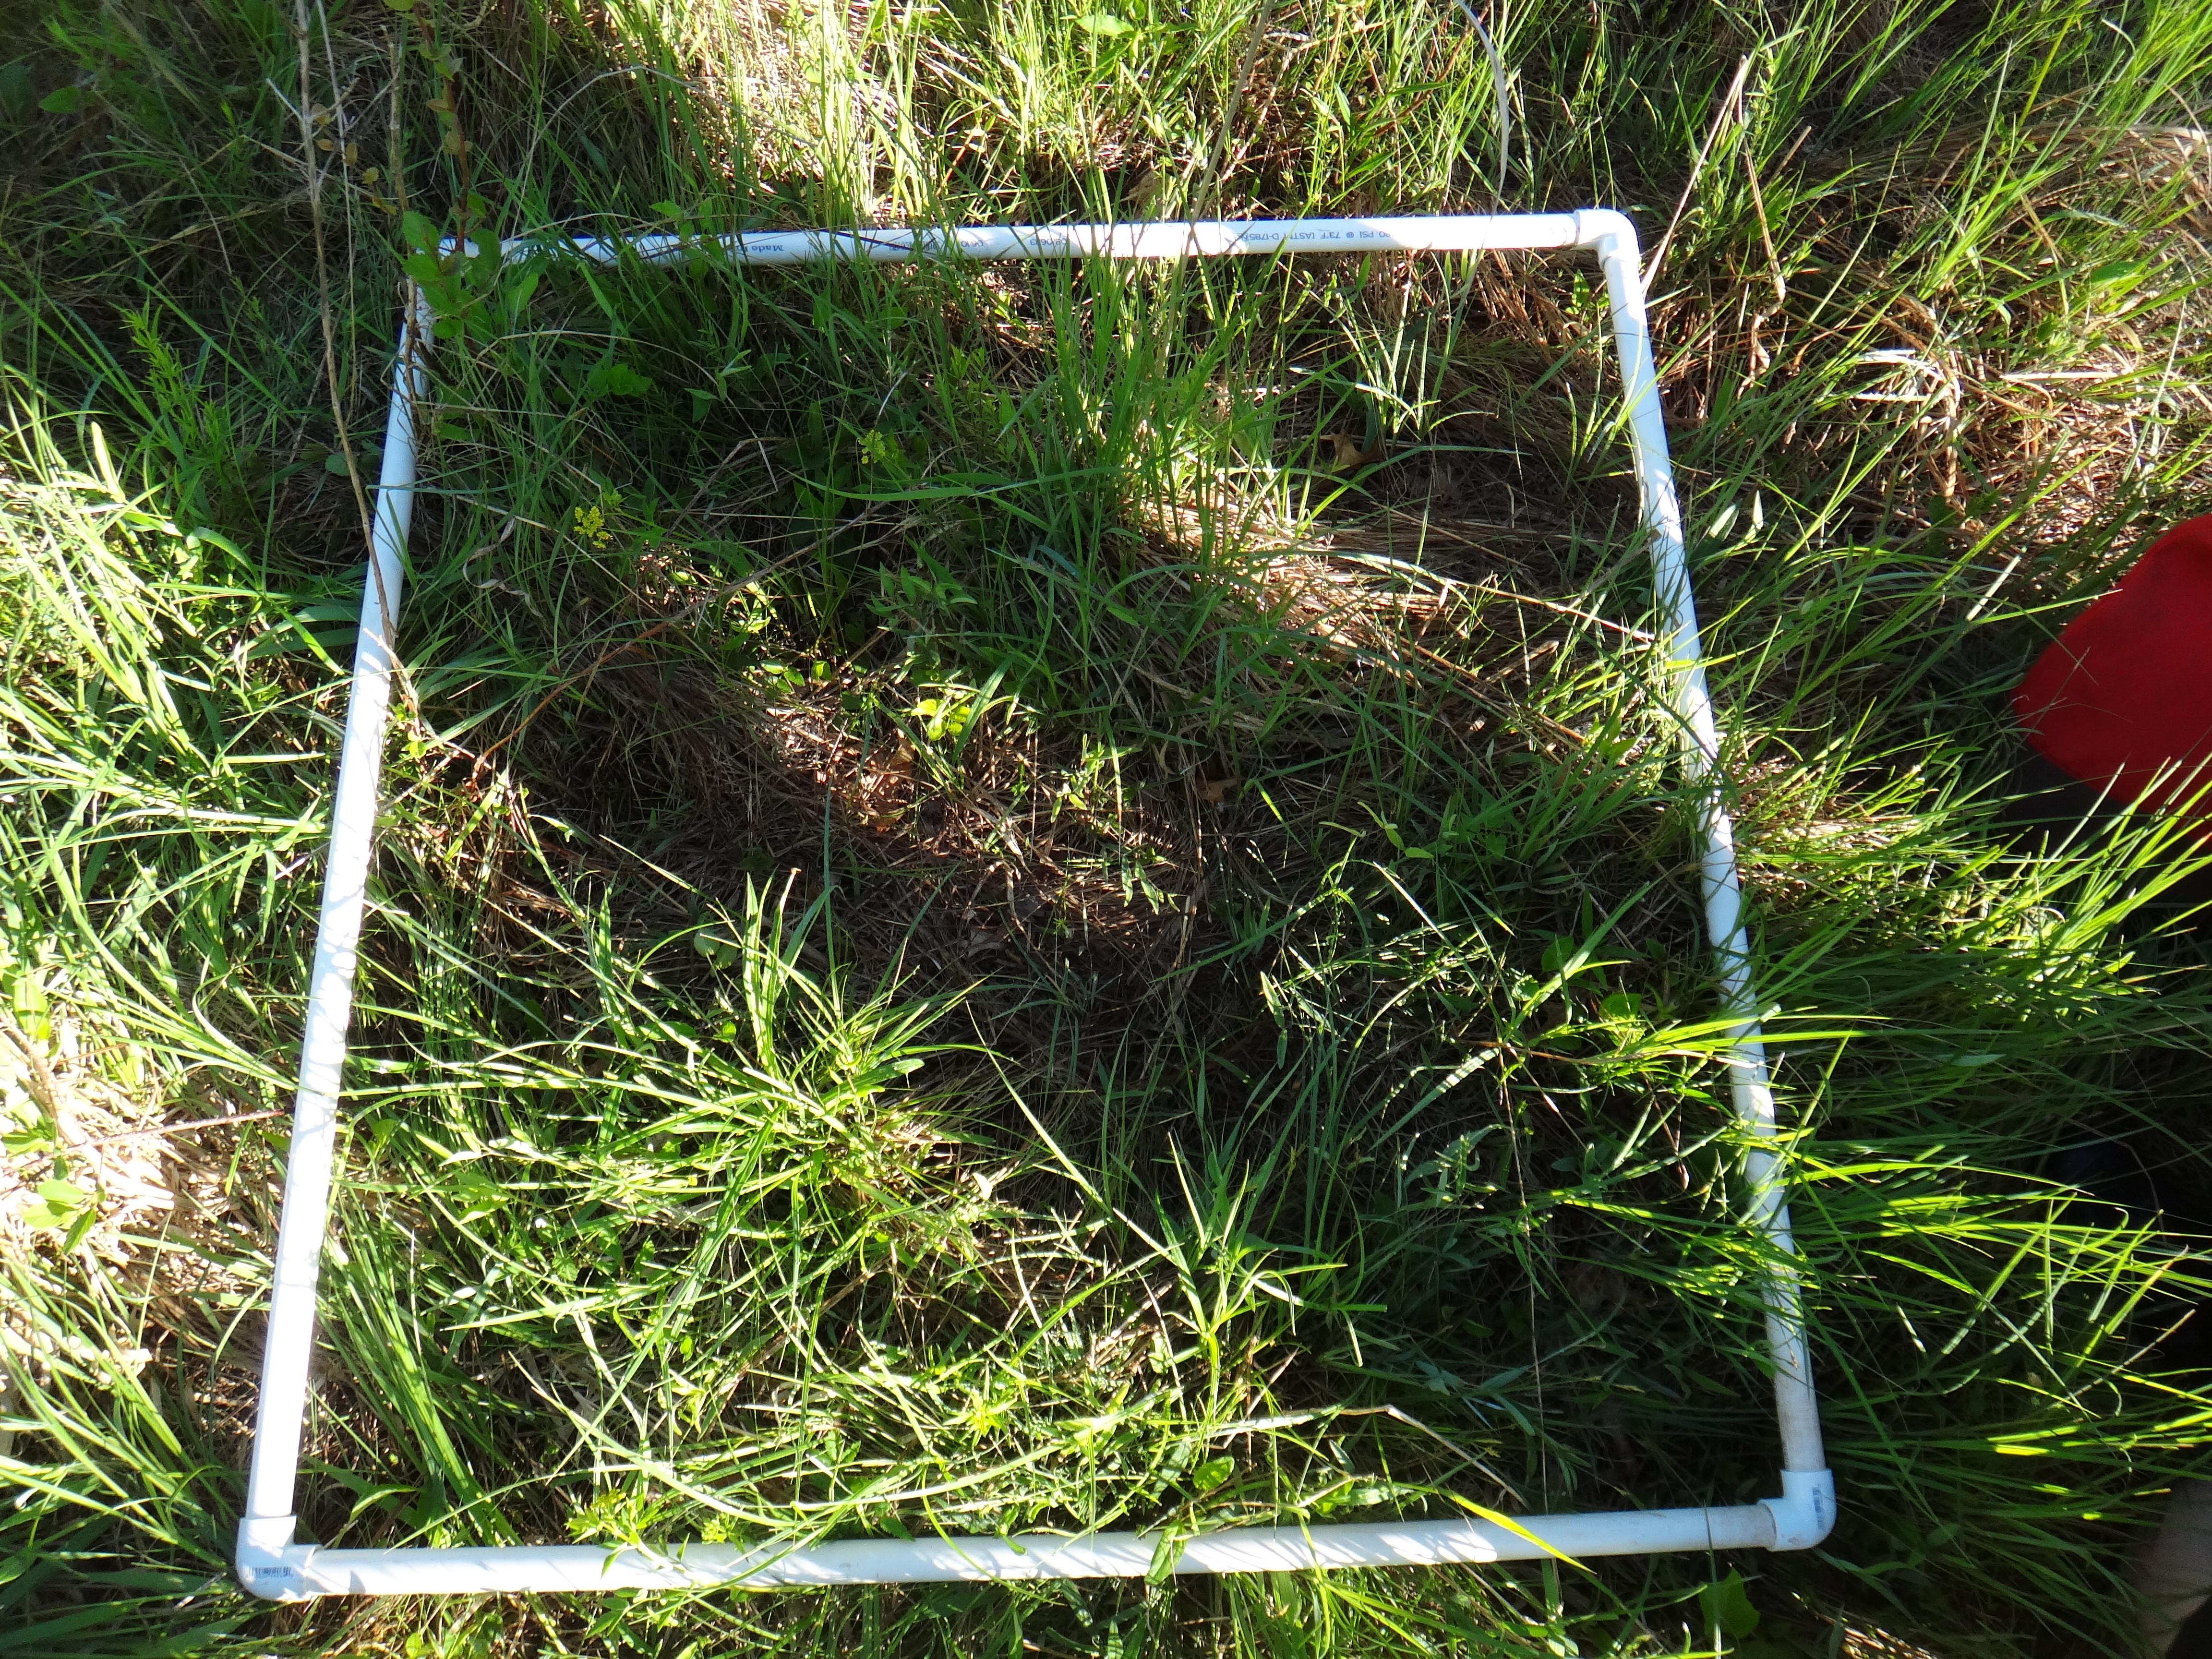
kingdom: Plantae
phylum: Tracheophyta
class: Magnoliopsida
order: Fabales
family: Fabaceae
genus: Lathyrus
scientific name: Lathyrus palustris
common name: Marsh pea
